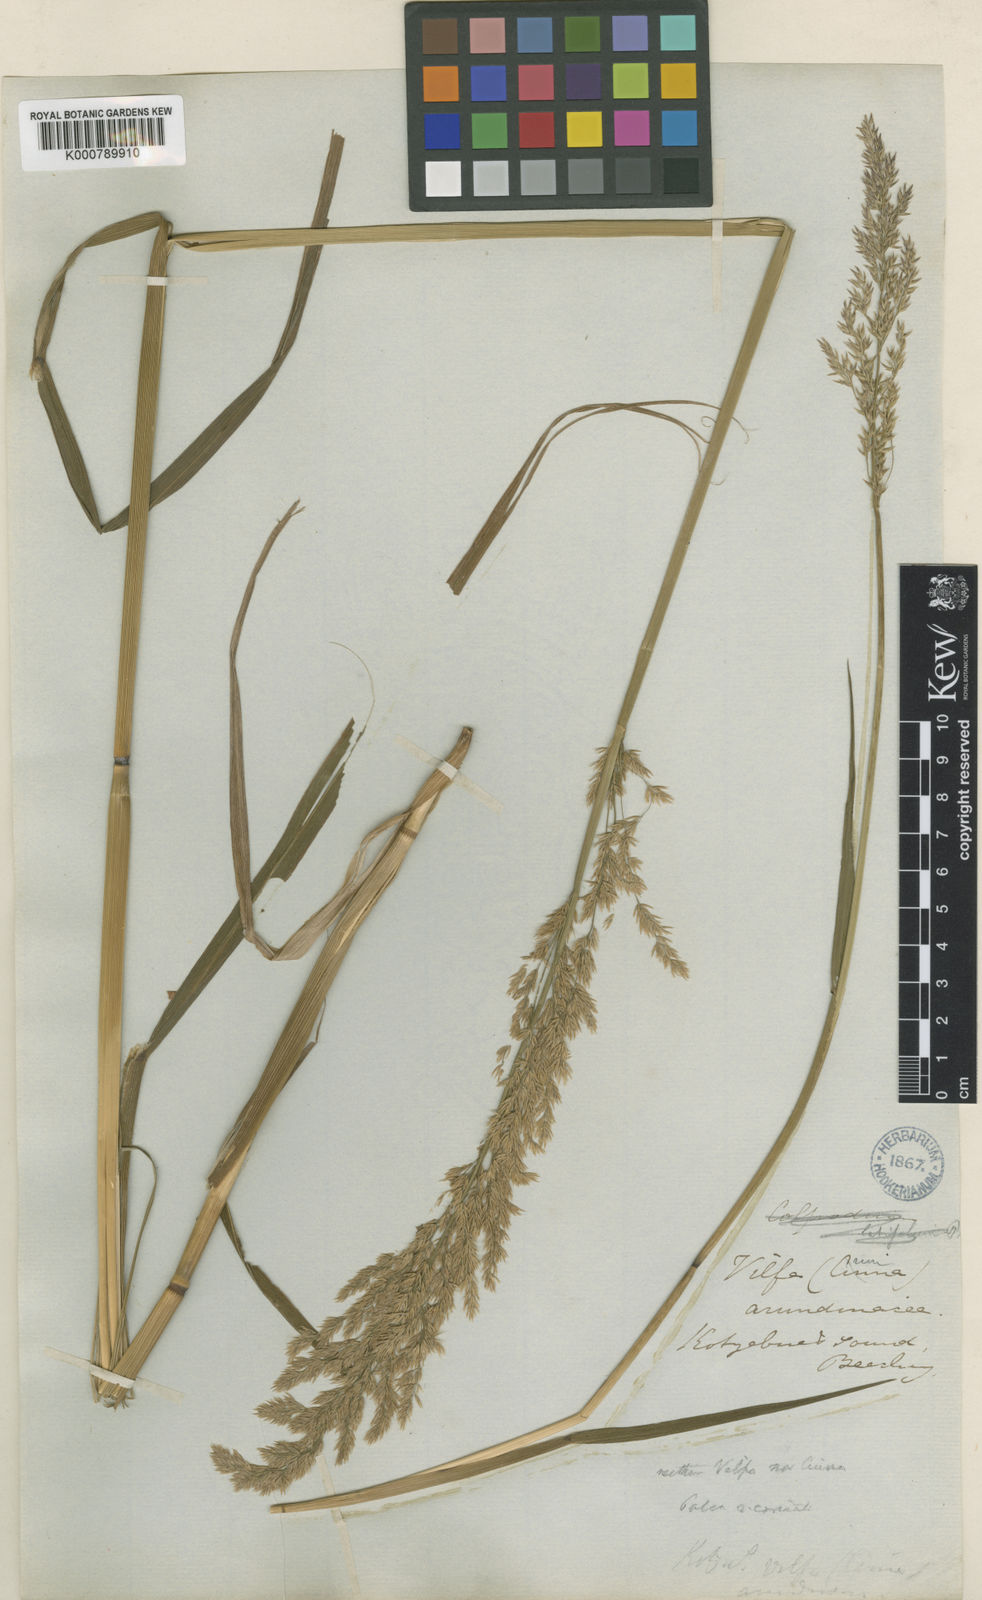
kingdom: Plantae
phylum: Tracheophyta
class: Liliopsida
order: Poales
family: Poaceae
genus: Arctagrostis
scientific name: Arctagrostis arundinacea
